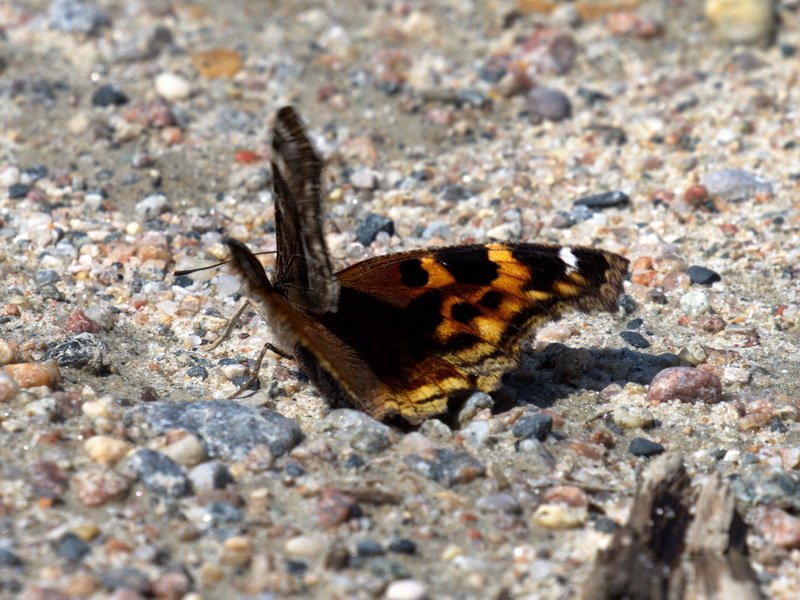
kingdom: Animalia
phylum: Arthropoda
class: Insecta
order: Lepidoptera
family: Nymphalidae
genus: Polygonia
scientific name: Polygonia vaualbum
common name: Compton Tortoiseshell
